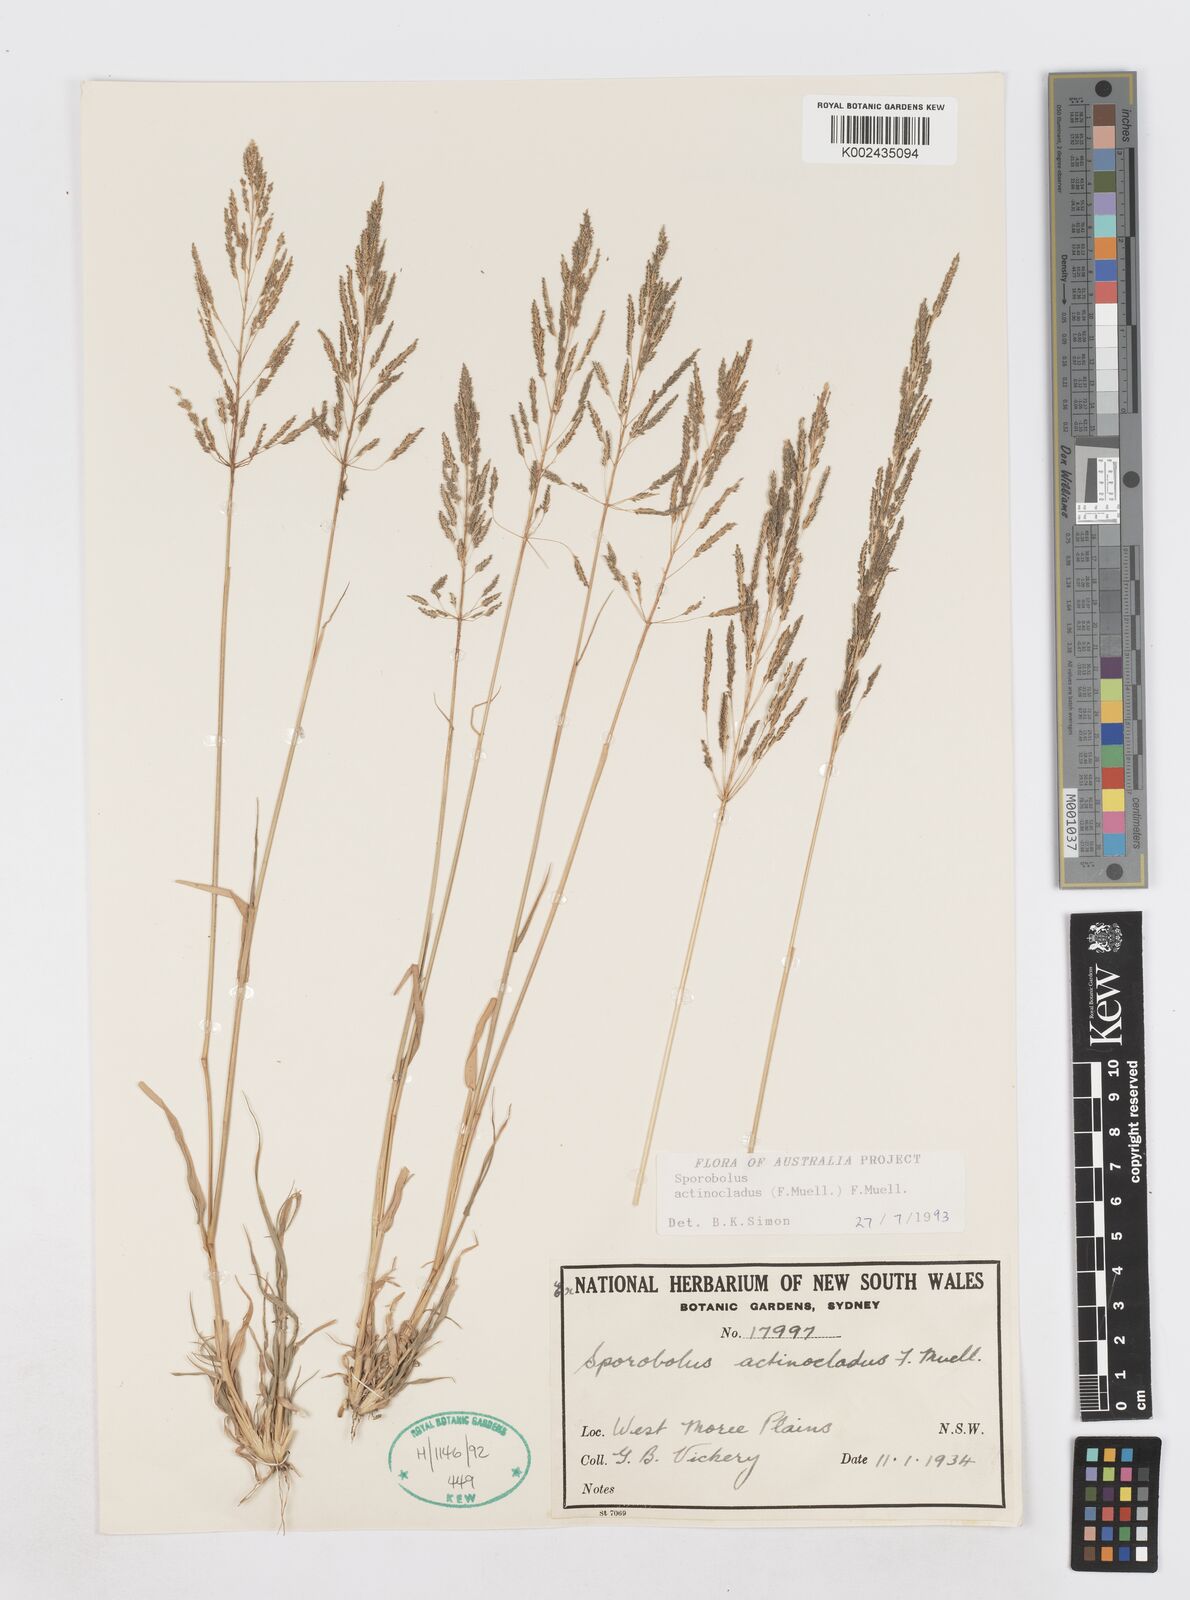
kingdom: Plantae
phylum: Tracheophyta
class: Liliopsida
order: Poales
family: Poaceae
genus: Sporobolus
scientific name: Sporobolus actinocladus
